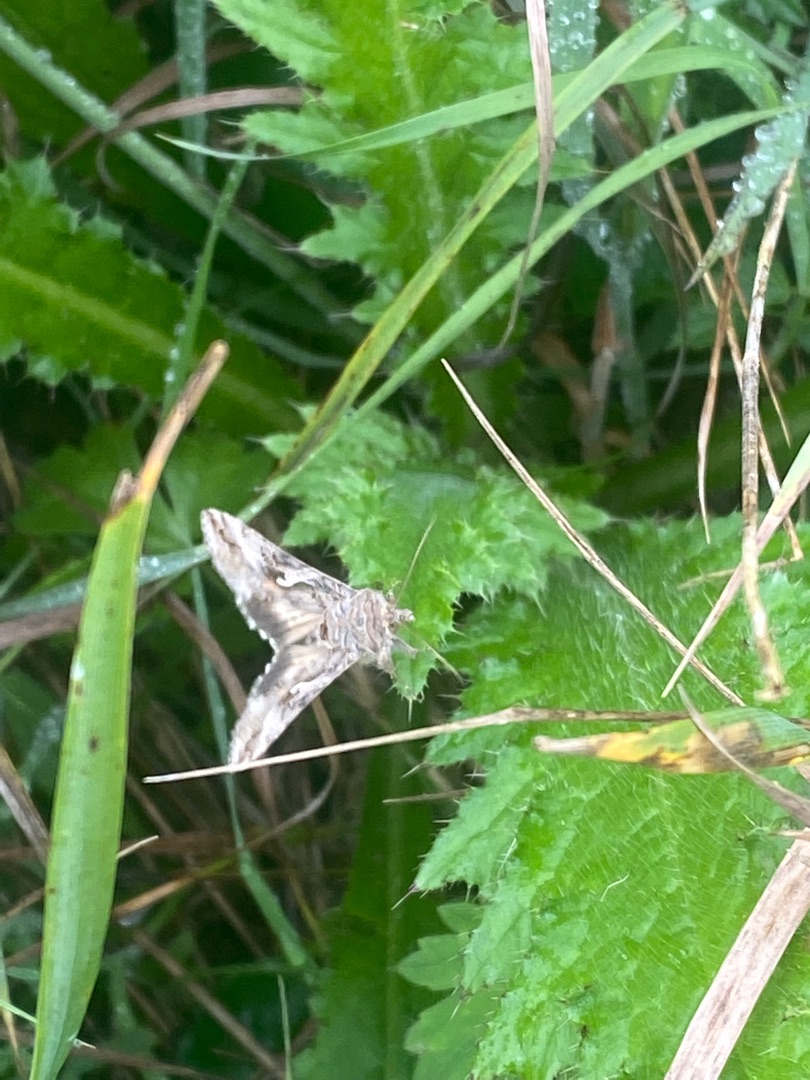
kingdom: Animalia
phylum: Arthropoda
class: Insecta
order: Lepidoptera
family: Noctuidae
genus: Autographa
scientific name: Autographa gamma
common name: Gammaugle
